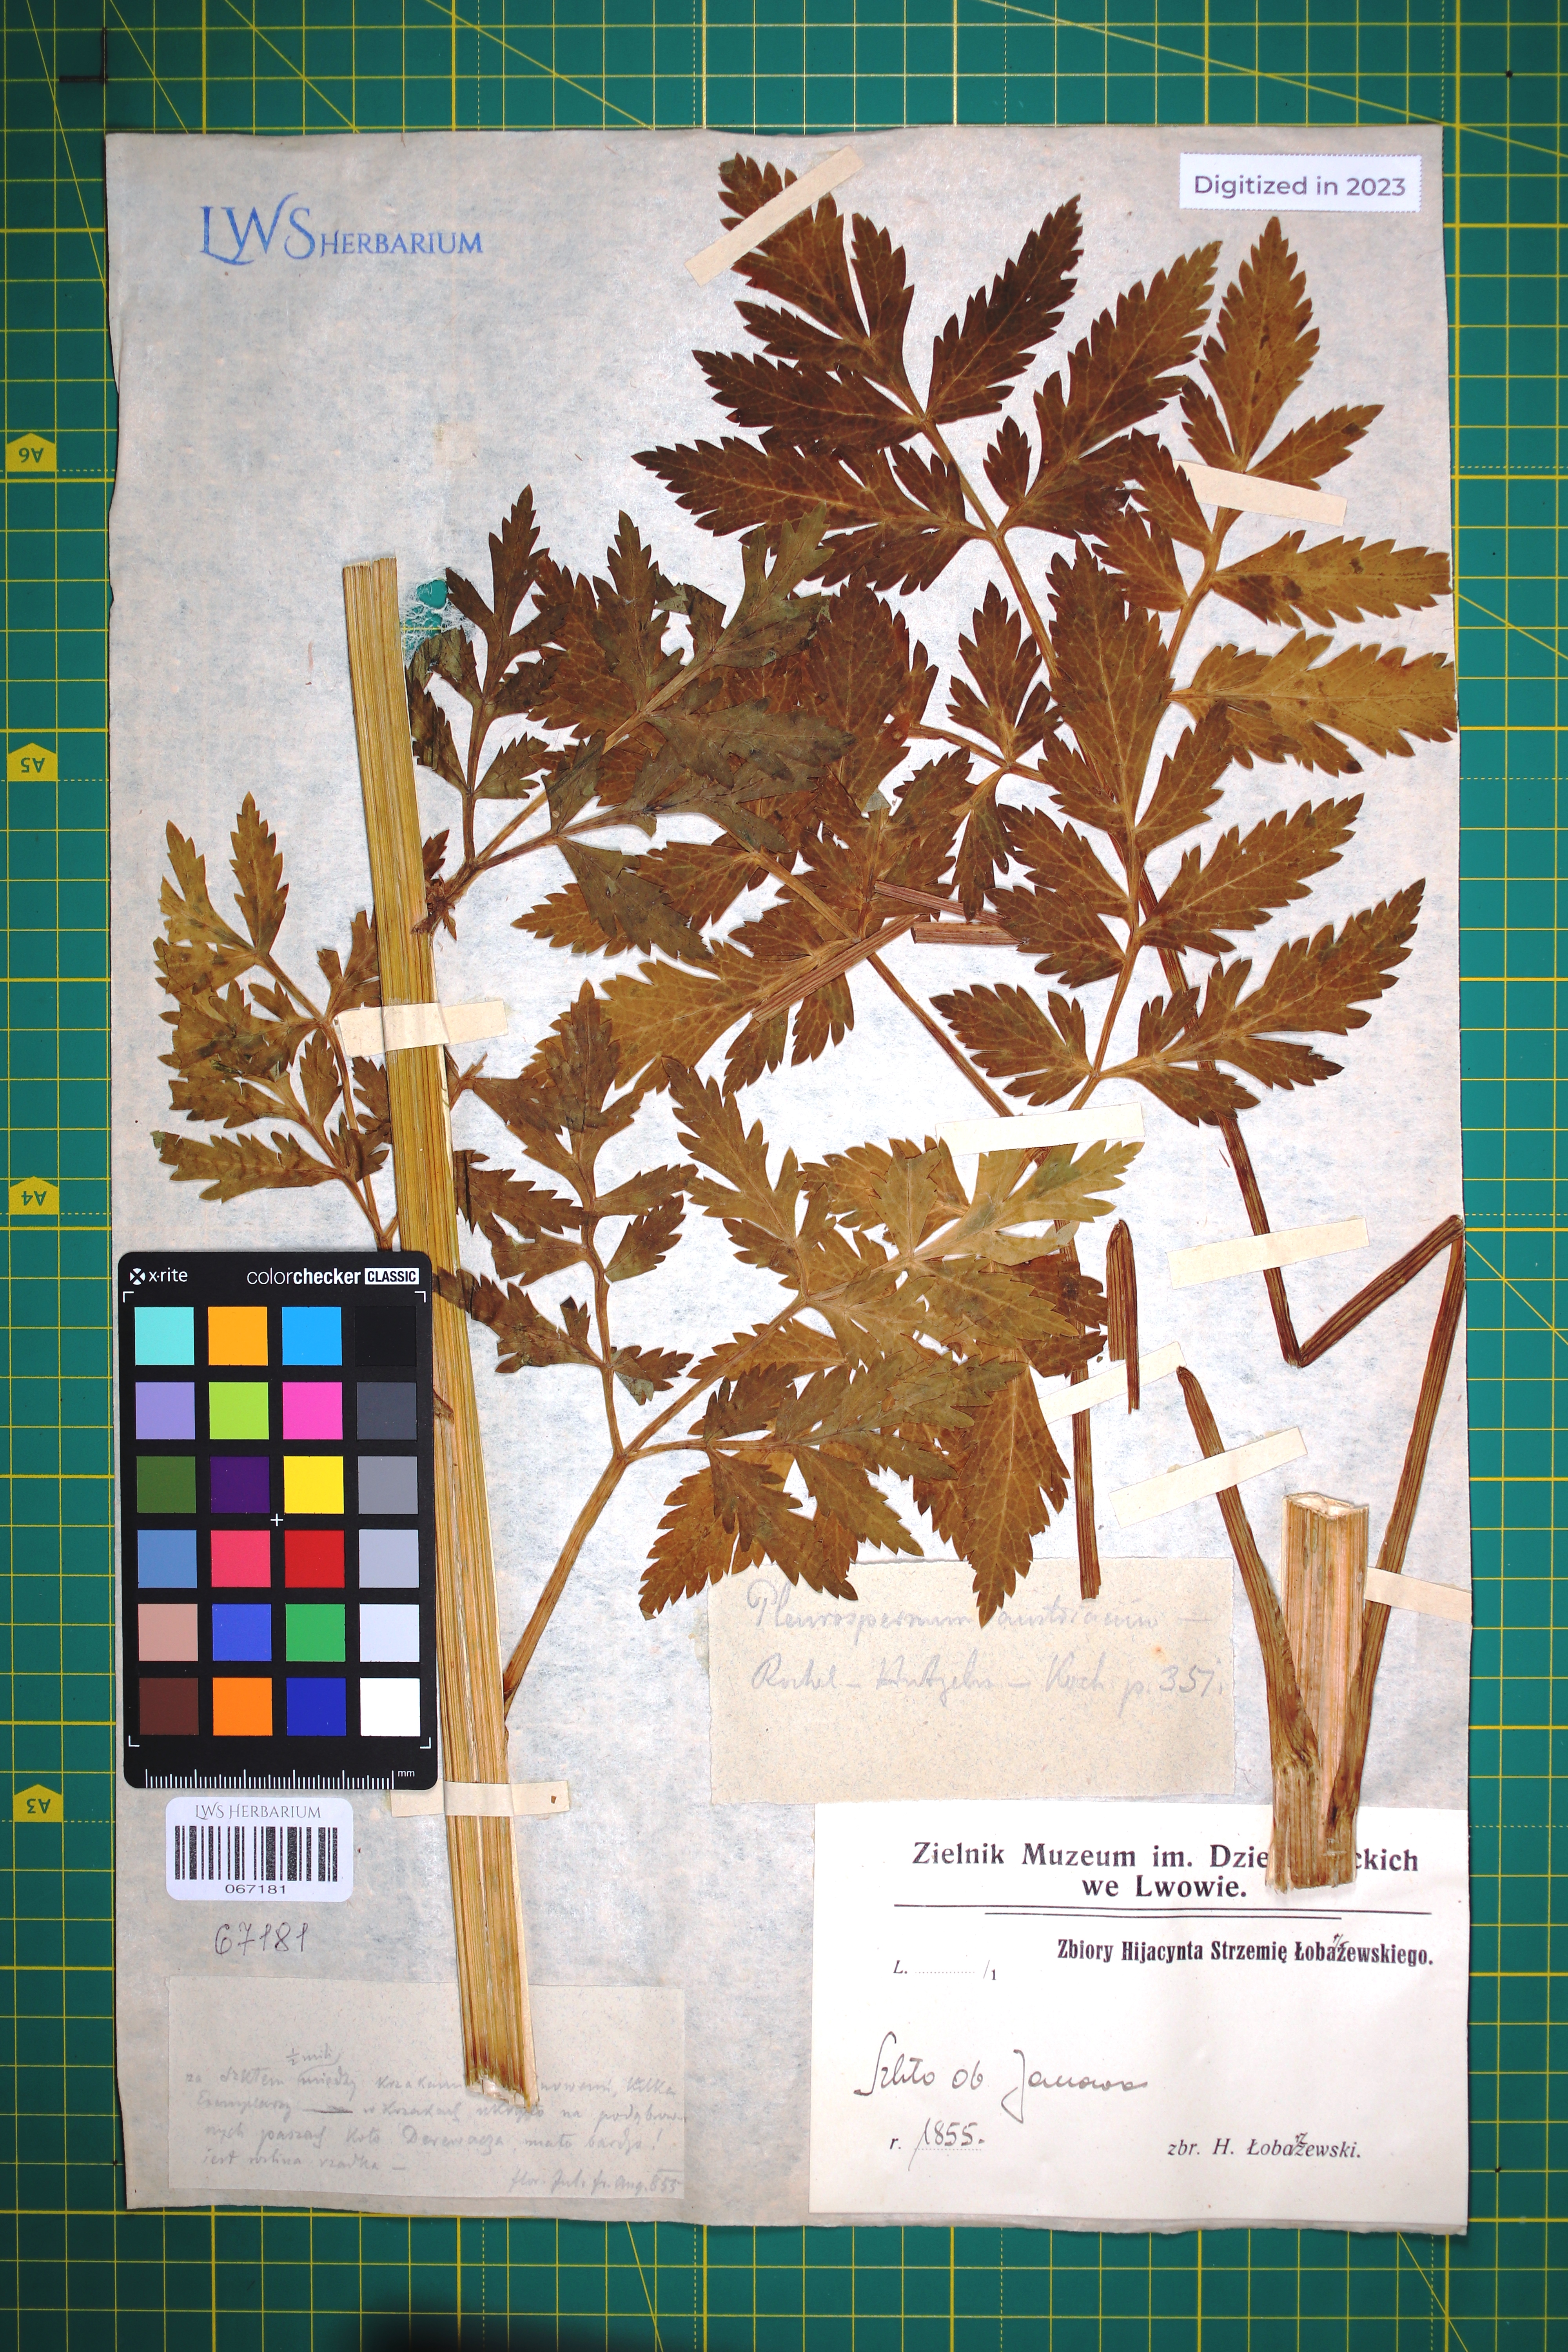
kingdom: Plantae
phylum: Tracheophyta
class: Magnoliopsida
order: Apiales
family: Apiaceae
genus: Pleurospermum
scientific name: Pleurospermum austriacum
